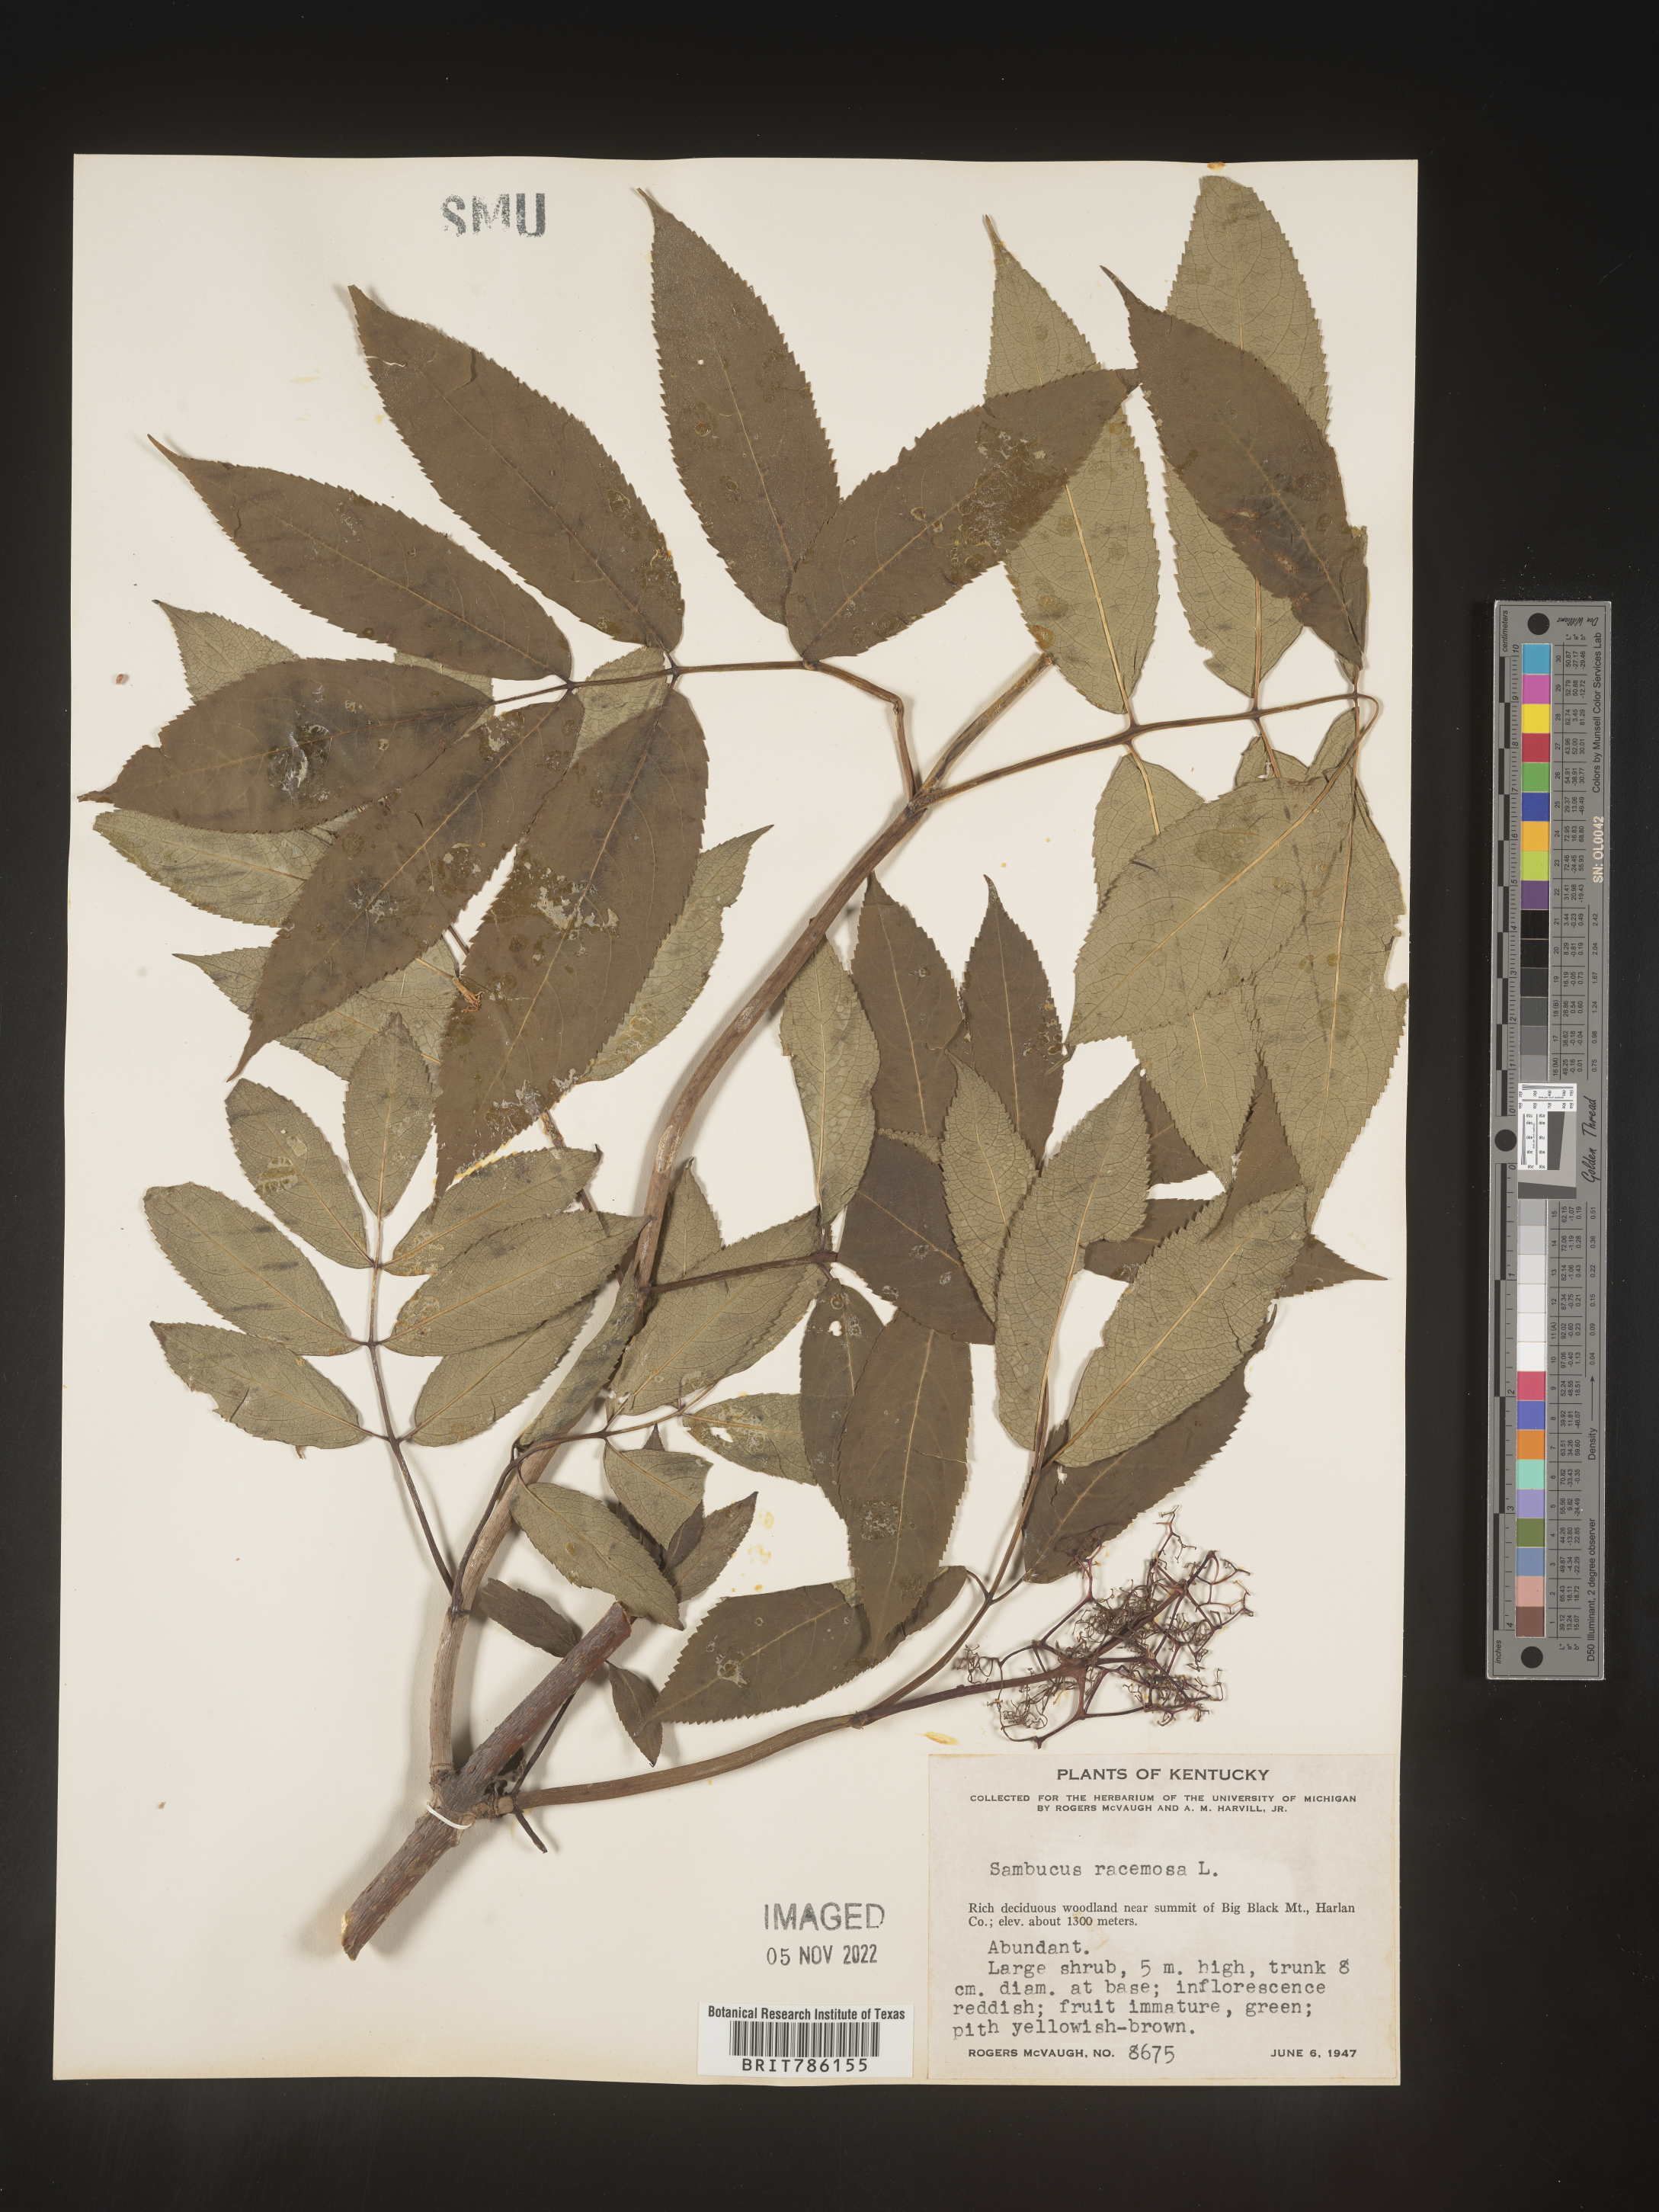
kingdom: Plantae
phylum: Tracheophyta
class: Magnoliopsida
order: Dipsacales
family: Viburnaceae
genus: Sambucus
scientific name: Sambucus
